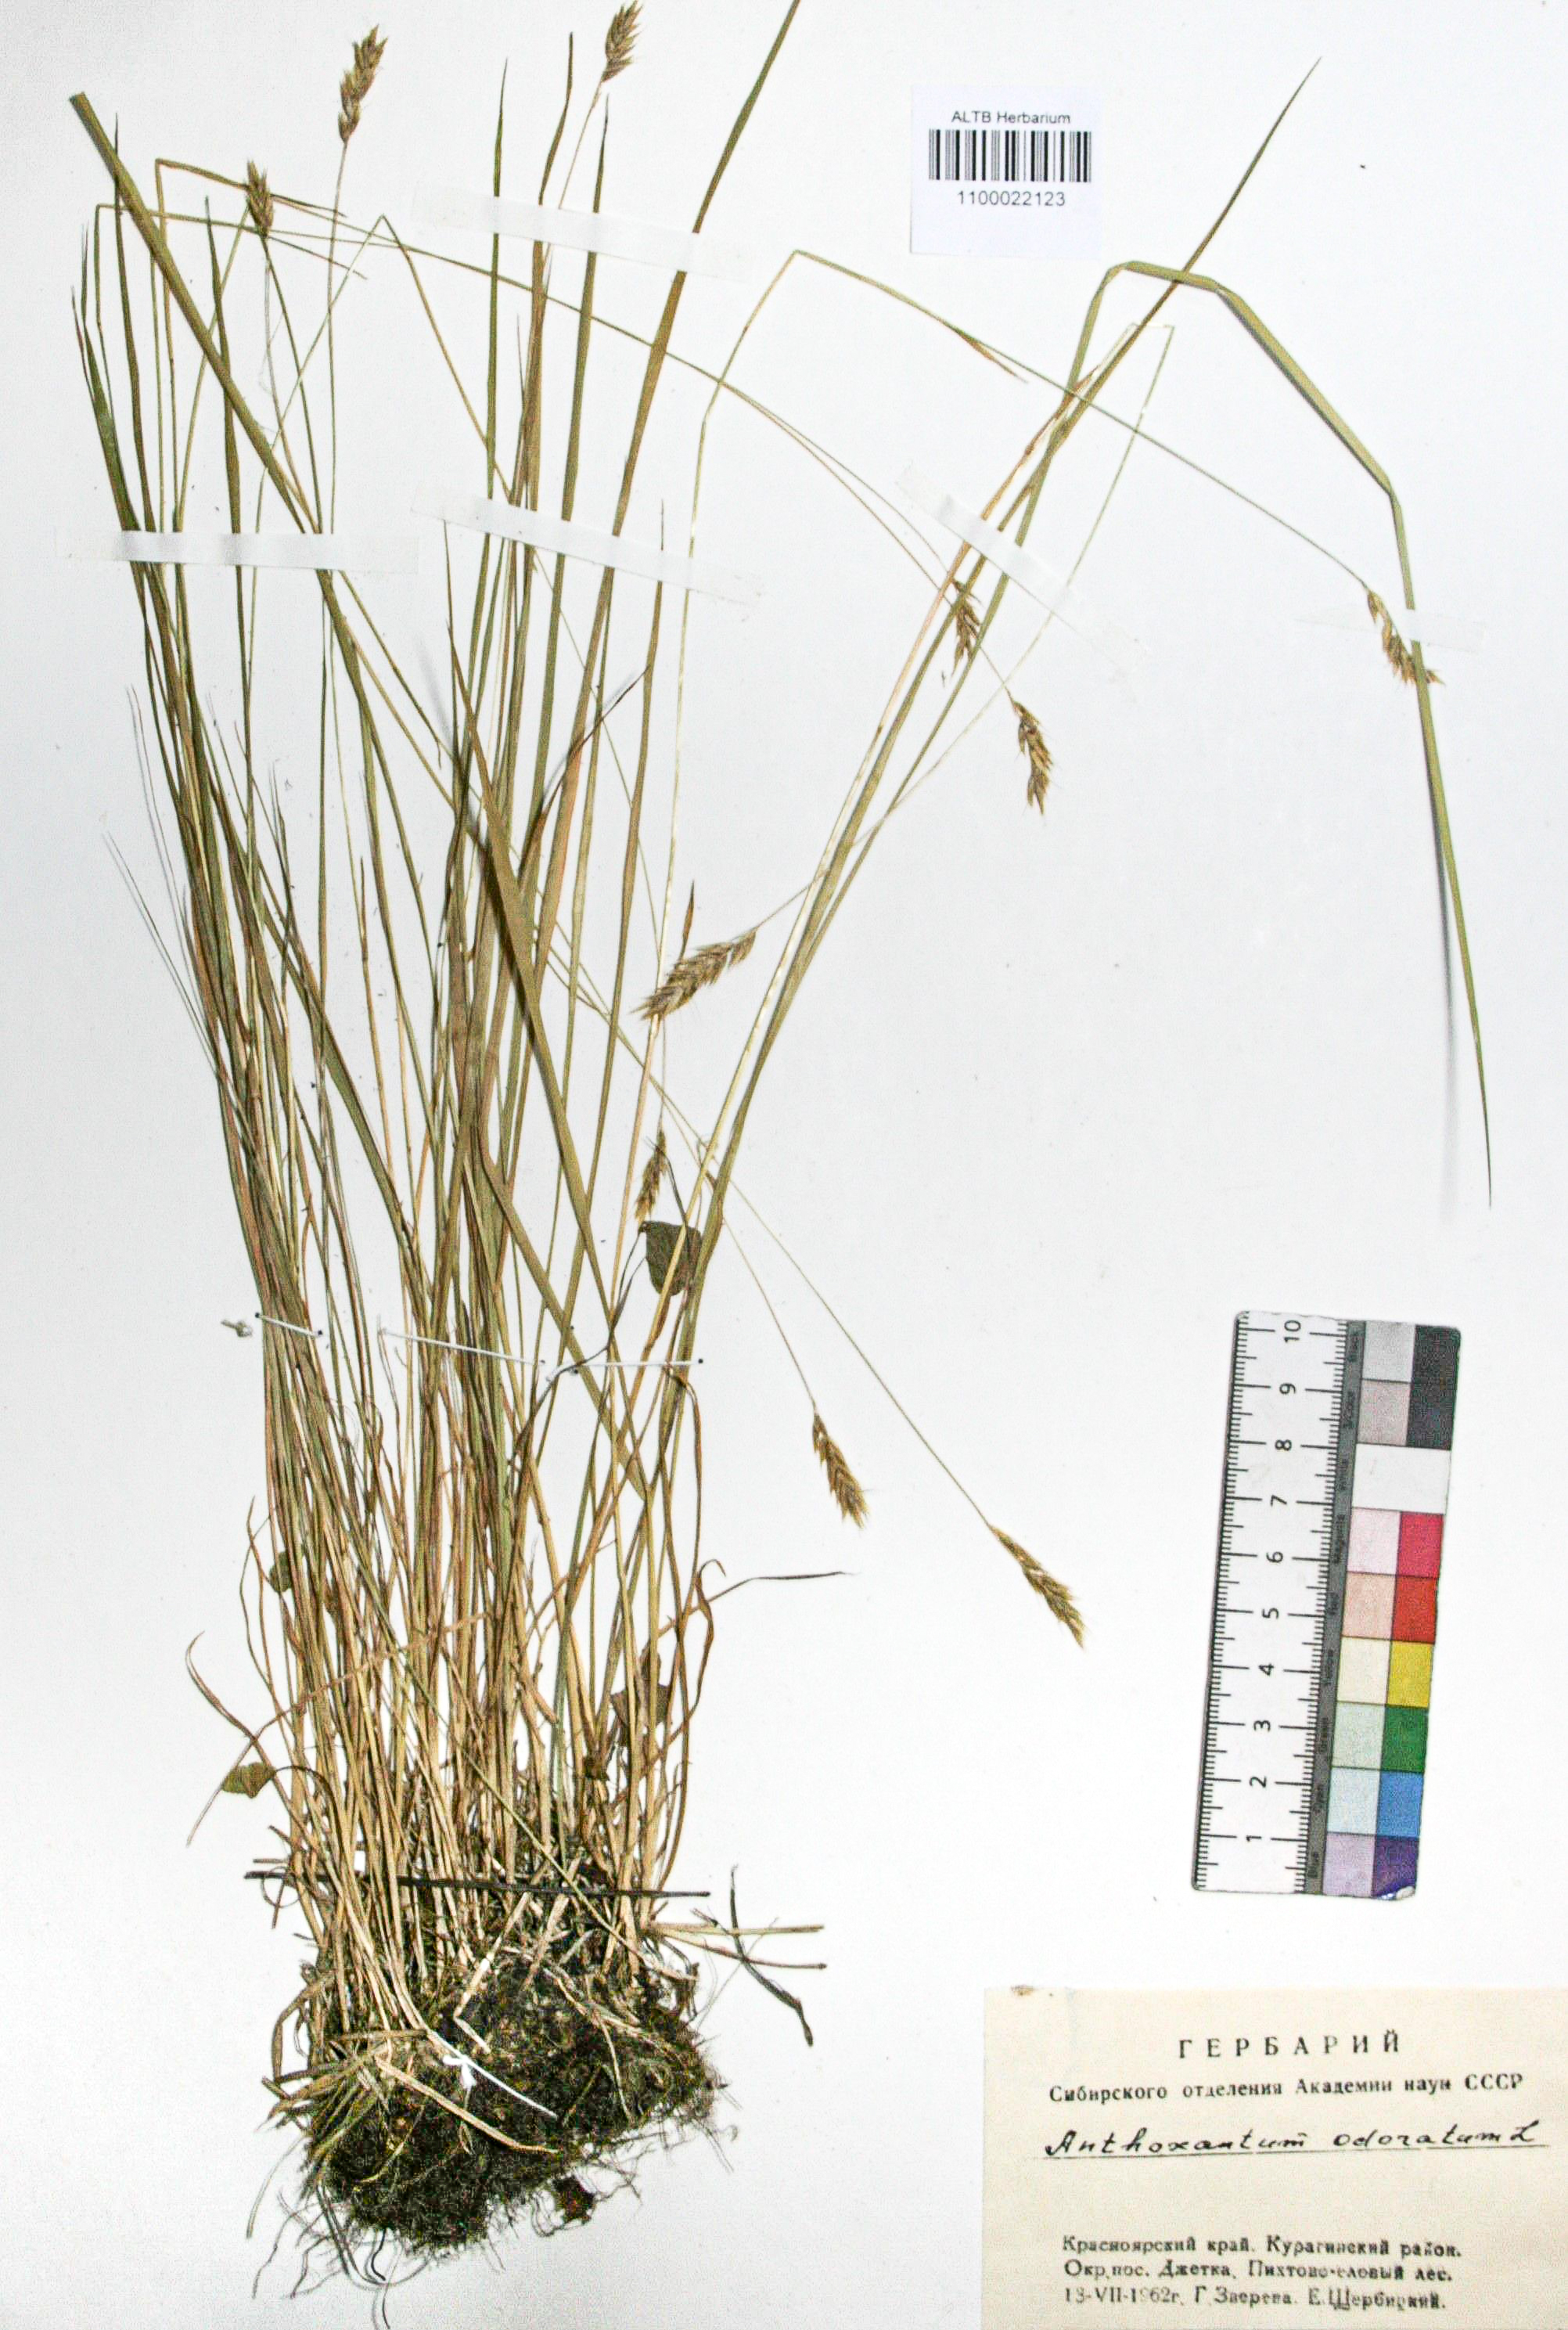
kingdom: Plantae
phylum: Tracheophyta
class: Liliopsida
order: Poales
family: Poaceae
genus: Anthoxanthum
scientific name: Anthoxanthum odoratum
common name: Sweet vernalgrass
